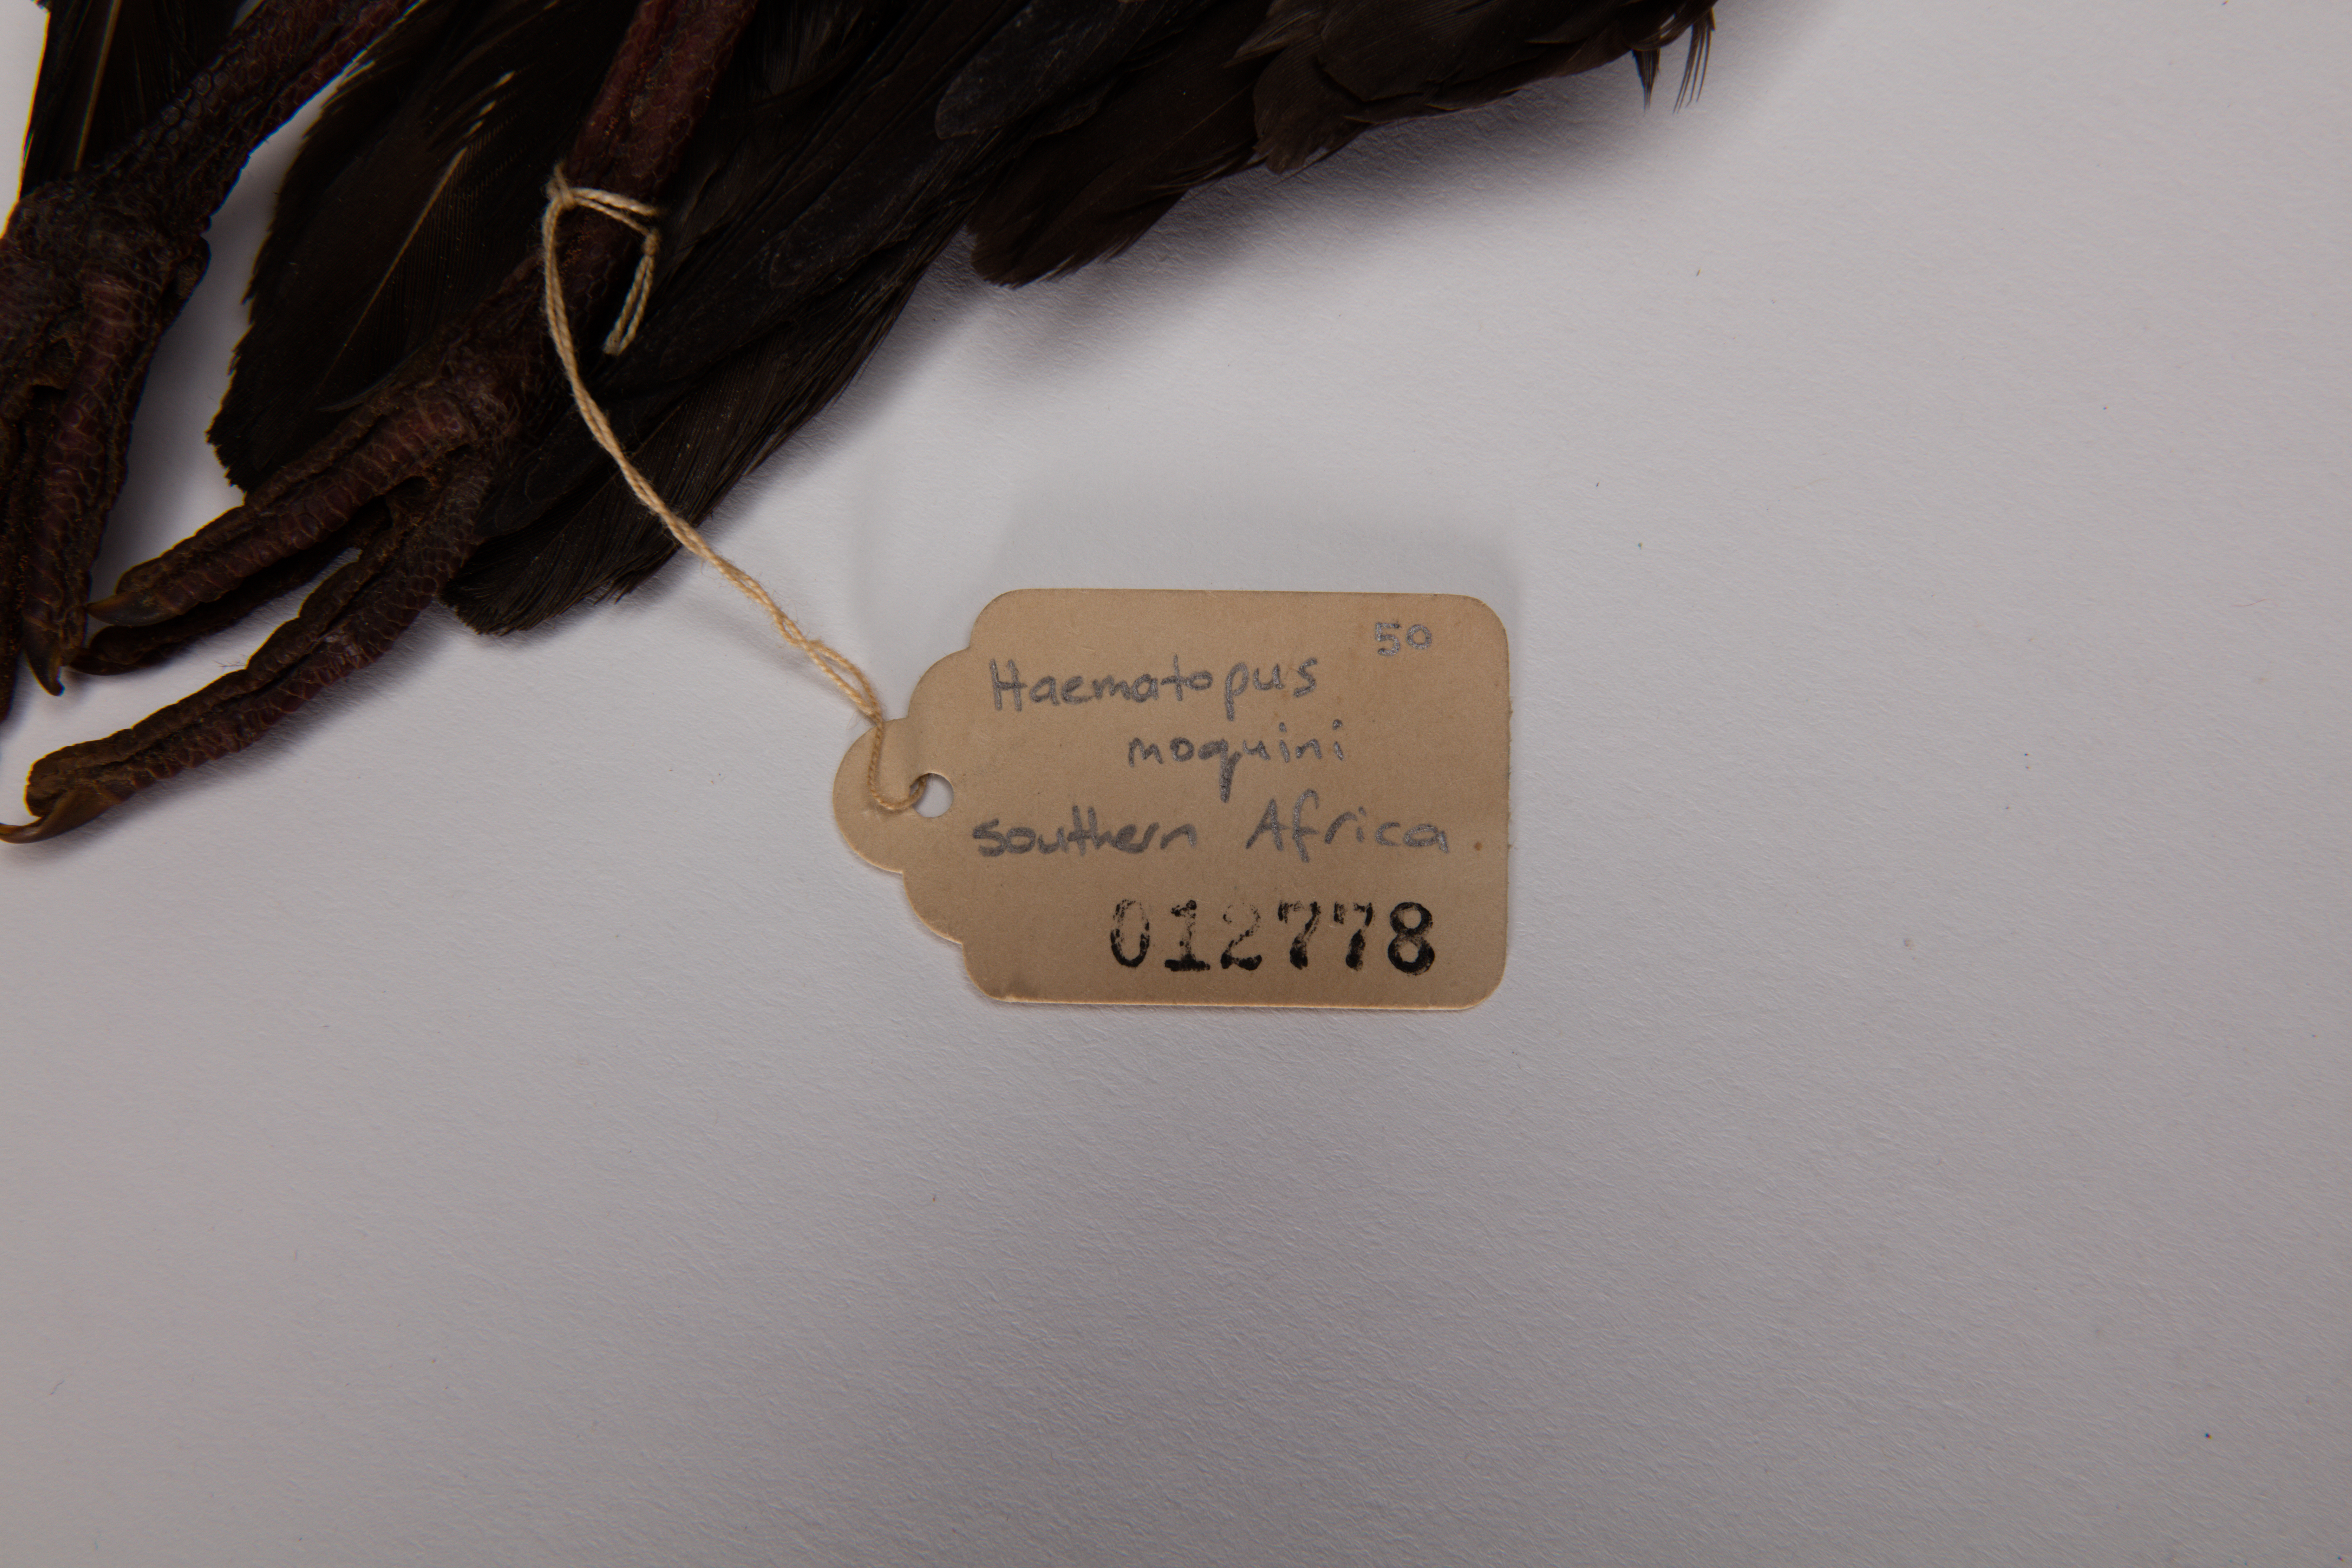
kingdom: Animalia
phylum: Chordata
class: Aves
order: Charadriiformes
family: Haematopodidae
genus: Haematopus
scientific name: Haematopus moquini
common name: African oystercatcher
